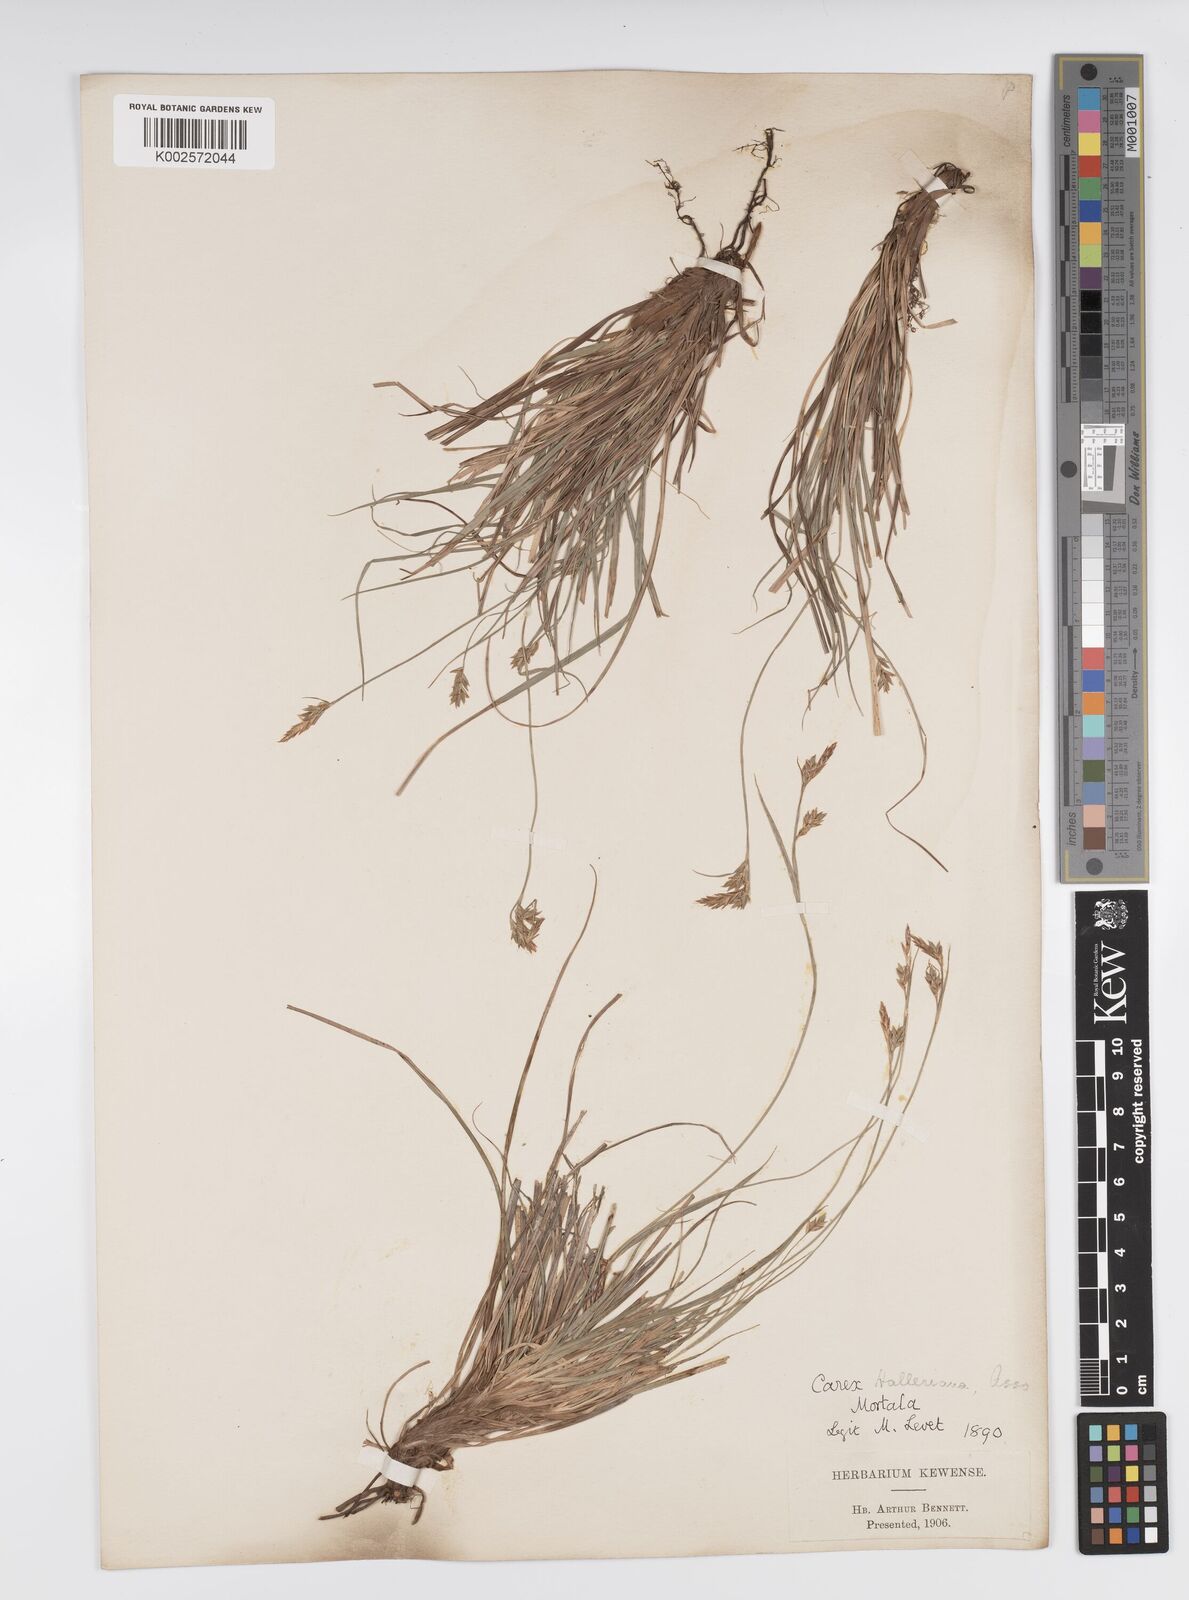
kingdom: Plantae
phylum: Tracheophyta
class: Liliopsida
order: Poales
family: Cyperaceae
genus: Carex
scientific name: Carex halleriana
